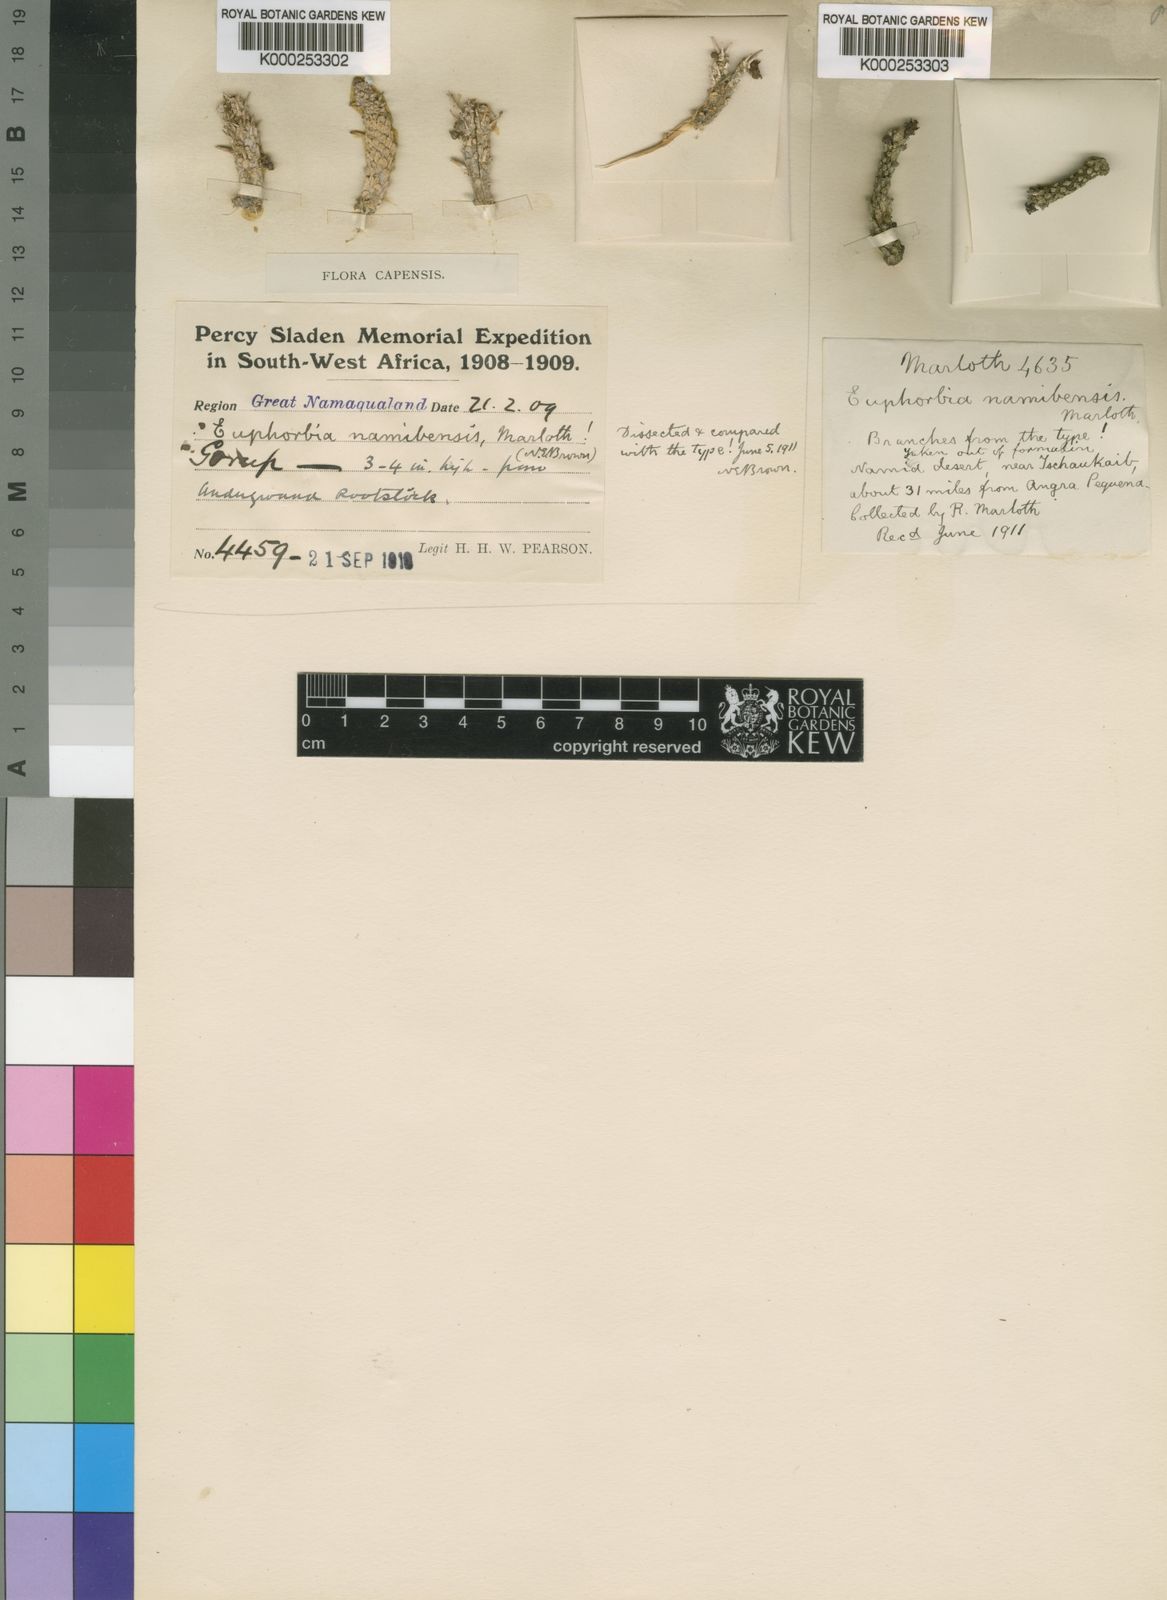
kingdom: Plantae
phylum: Tracheophyta
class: Magnoliopsida
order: Malpighiales
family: Euphorbiaceae
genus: Euphorbia
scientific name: Euphorbia namibensis
